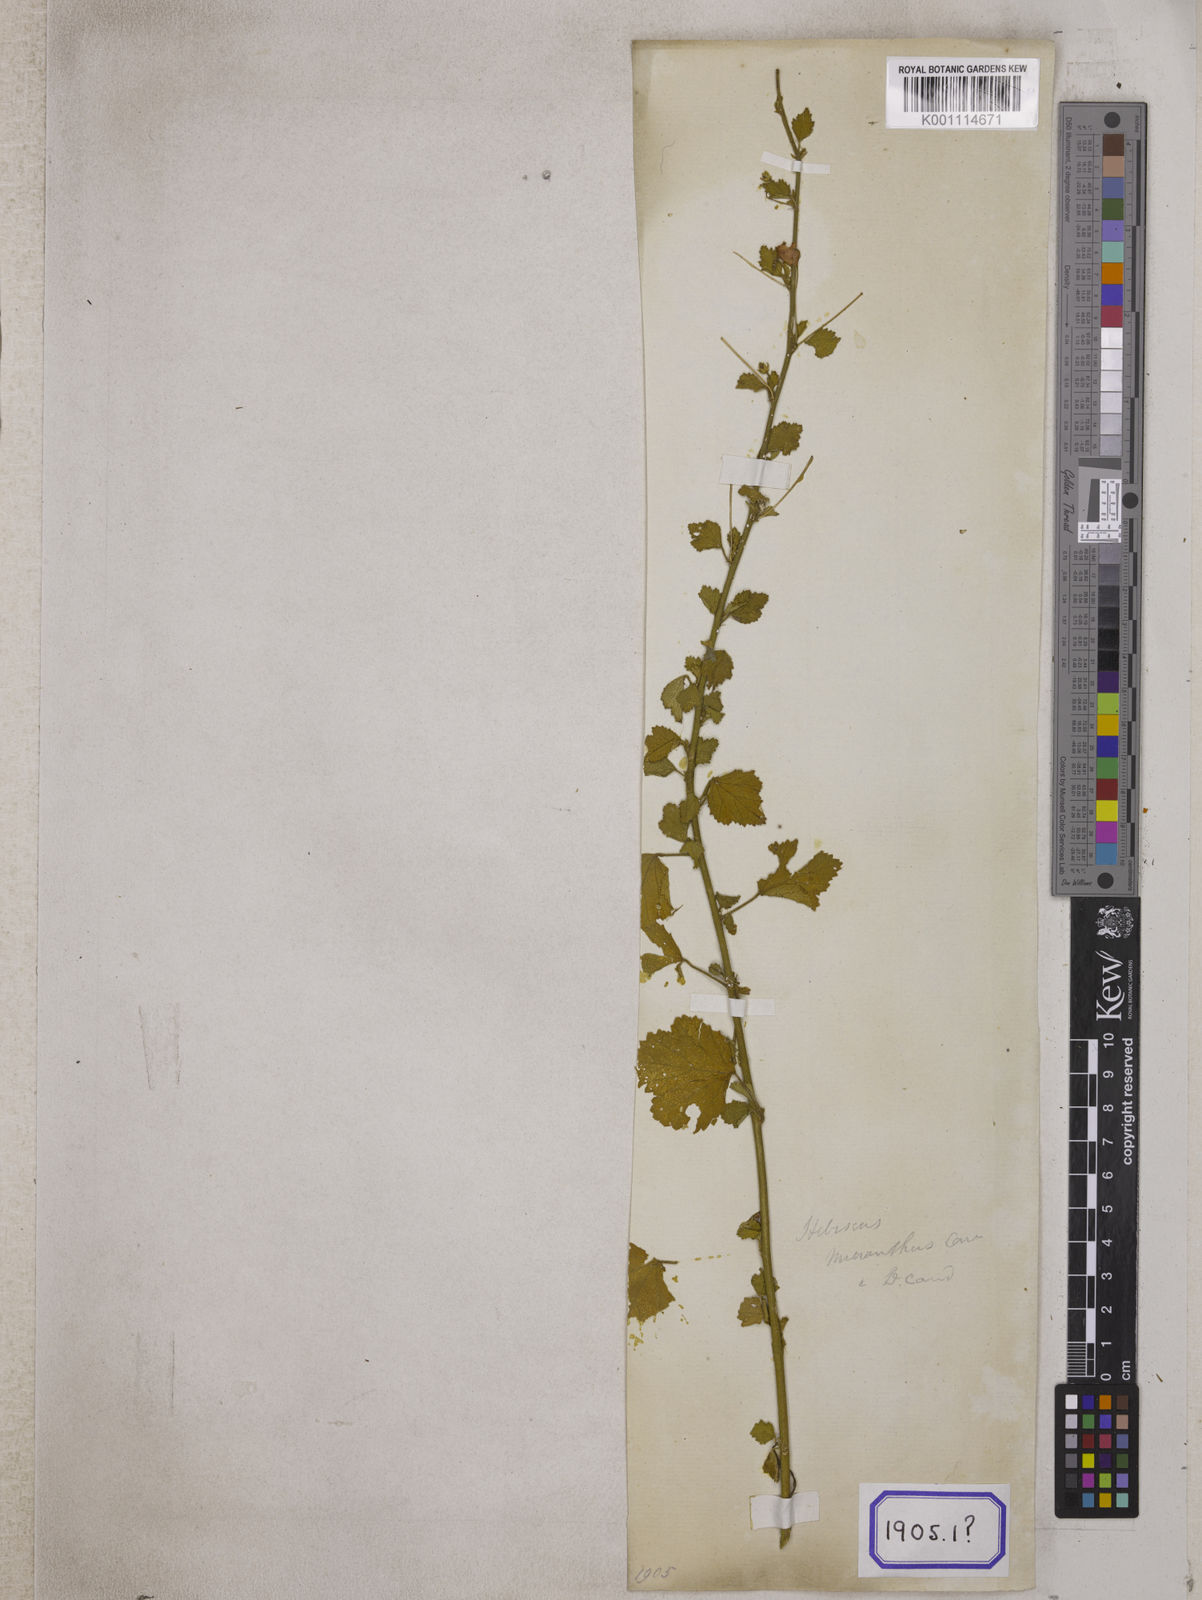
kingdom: Plantae
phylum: Tracheophyta
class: Magnoliopsida
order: Malvales
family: Malvaceae
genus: Hibiscus
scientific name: Hibiscus micranthus
